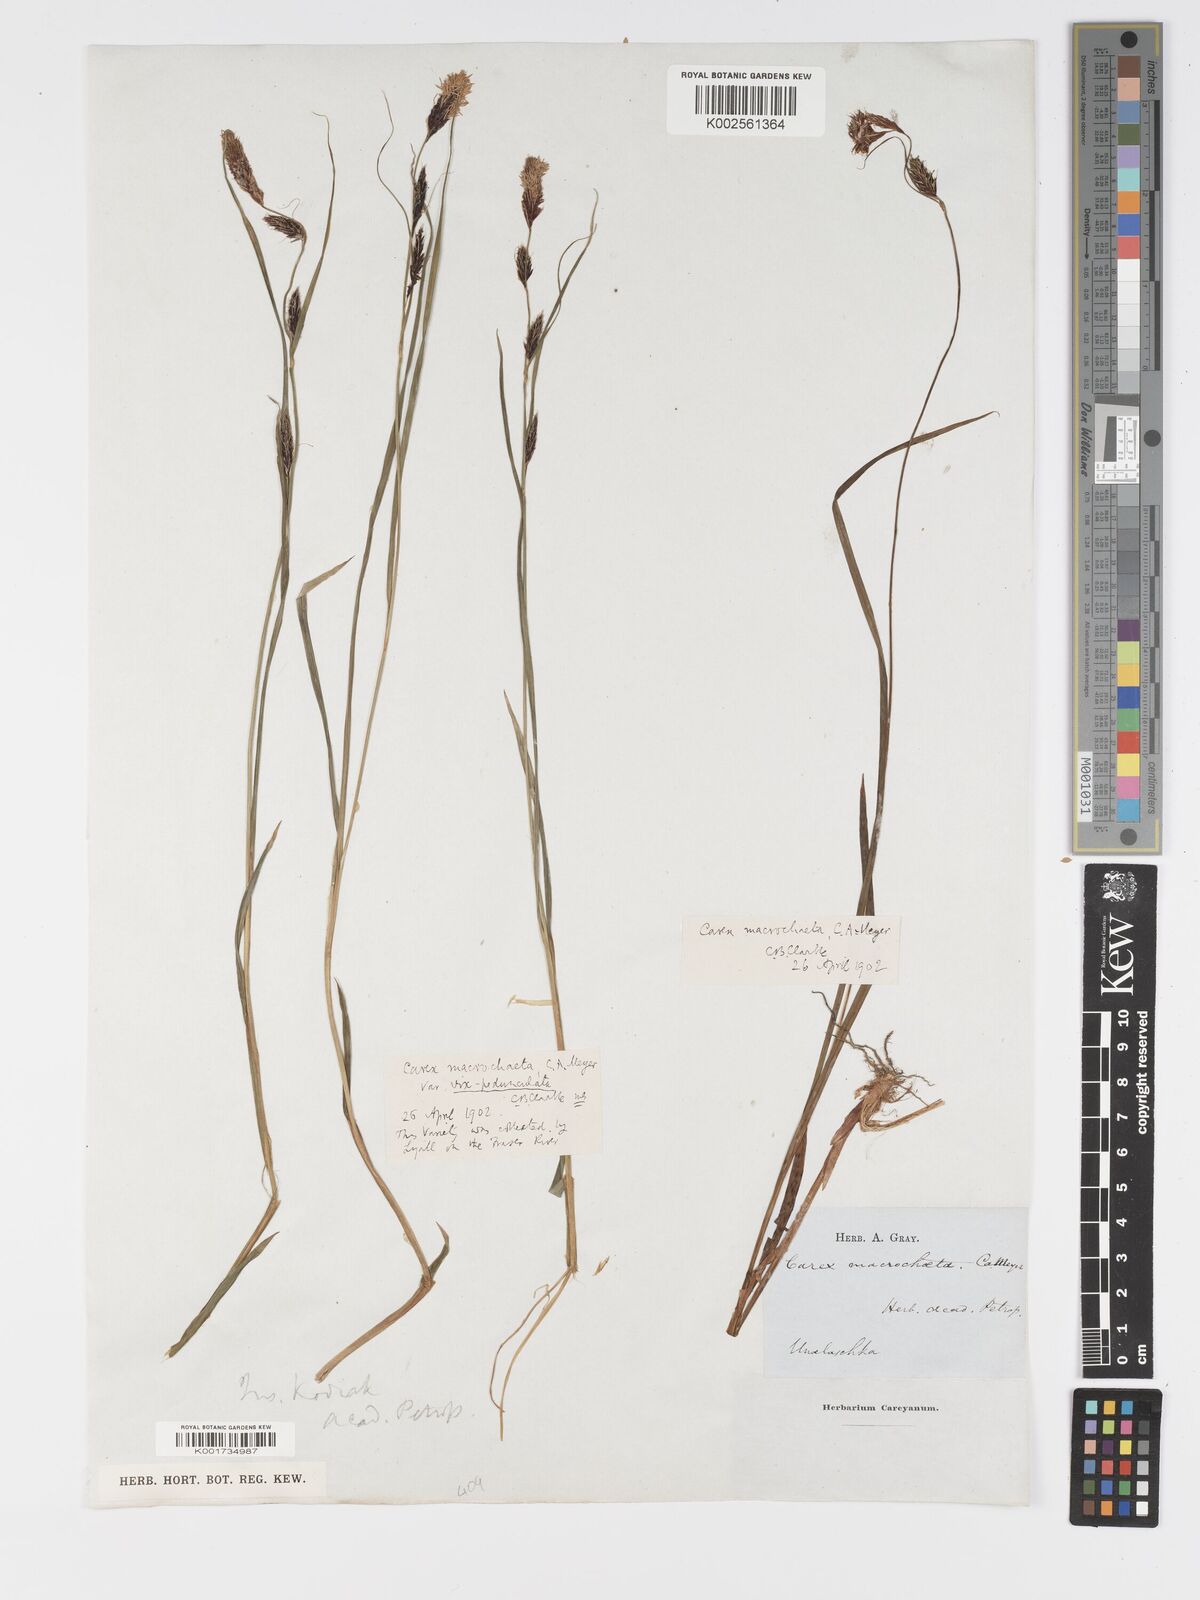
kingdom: Plantae
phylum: Tracheophyta
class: Liliopsida
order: Poales
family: Cyperaceae
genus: Carex
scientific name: Carex macrochaeta
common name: Alaska large awn sedge
